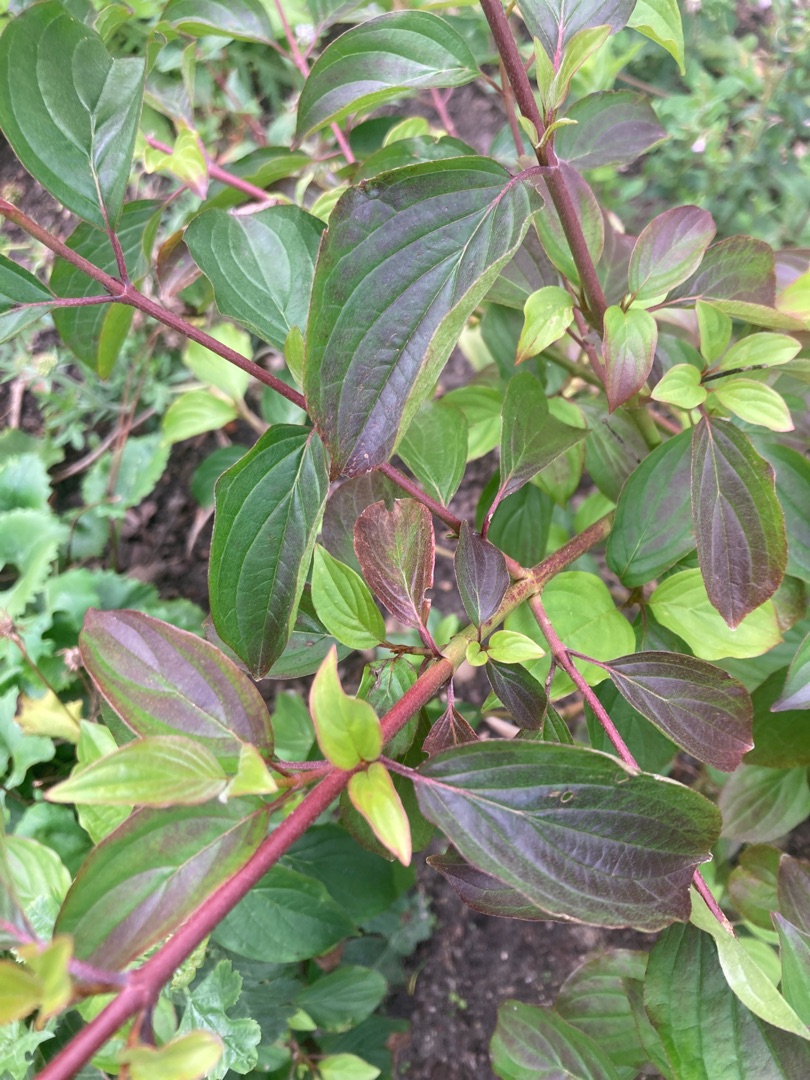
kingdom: Plantae
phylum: Tracheophyta
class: Magnoliopsida
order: Cornales
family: Cornaceae
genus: Cornus
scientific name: Cornus sanguinea
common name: Rød kornel
